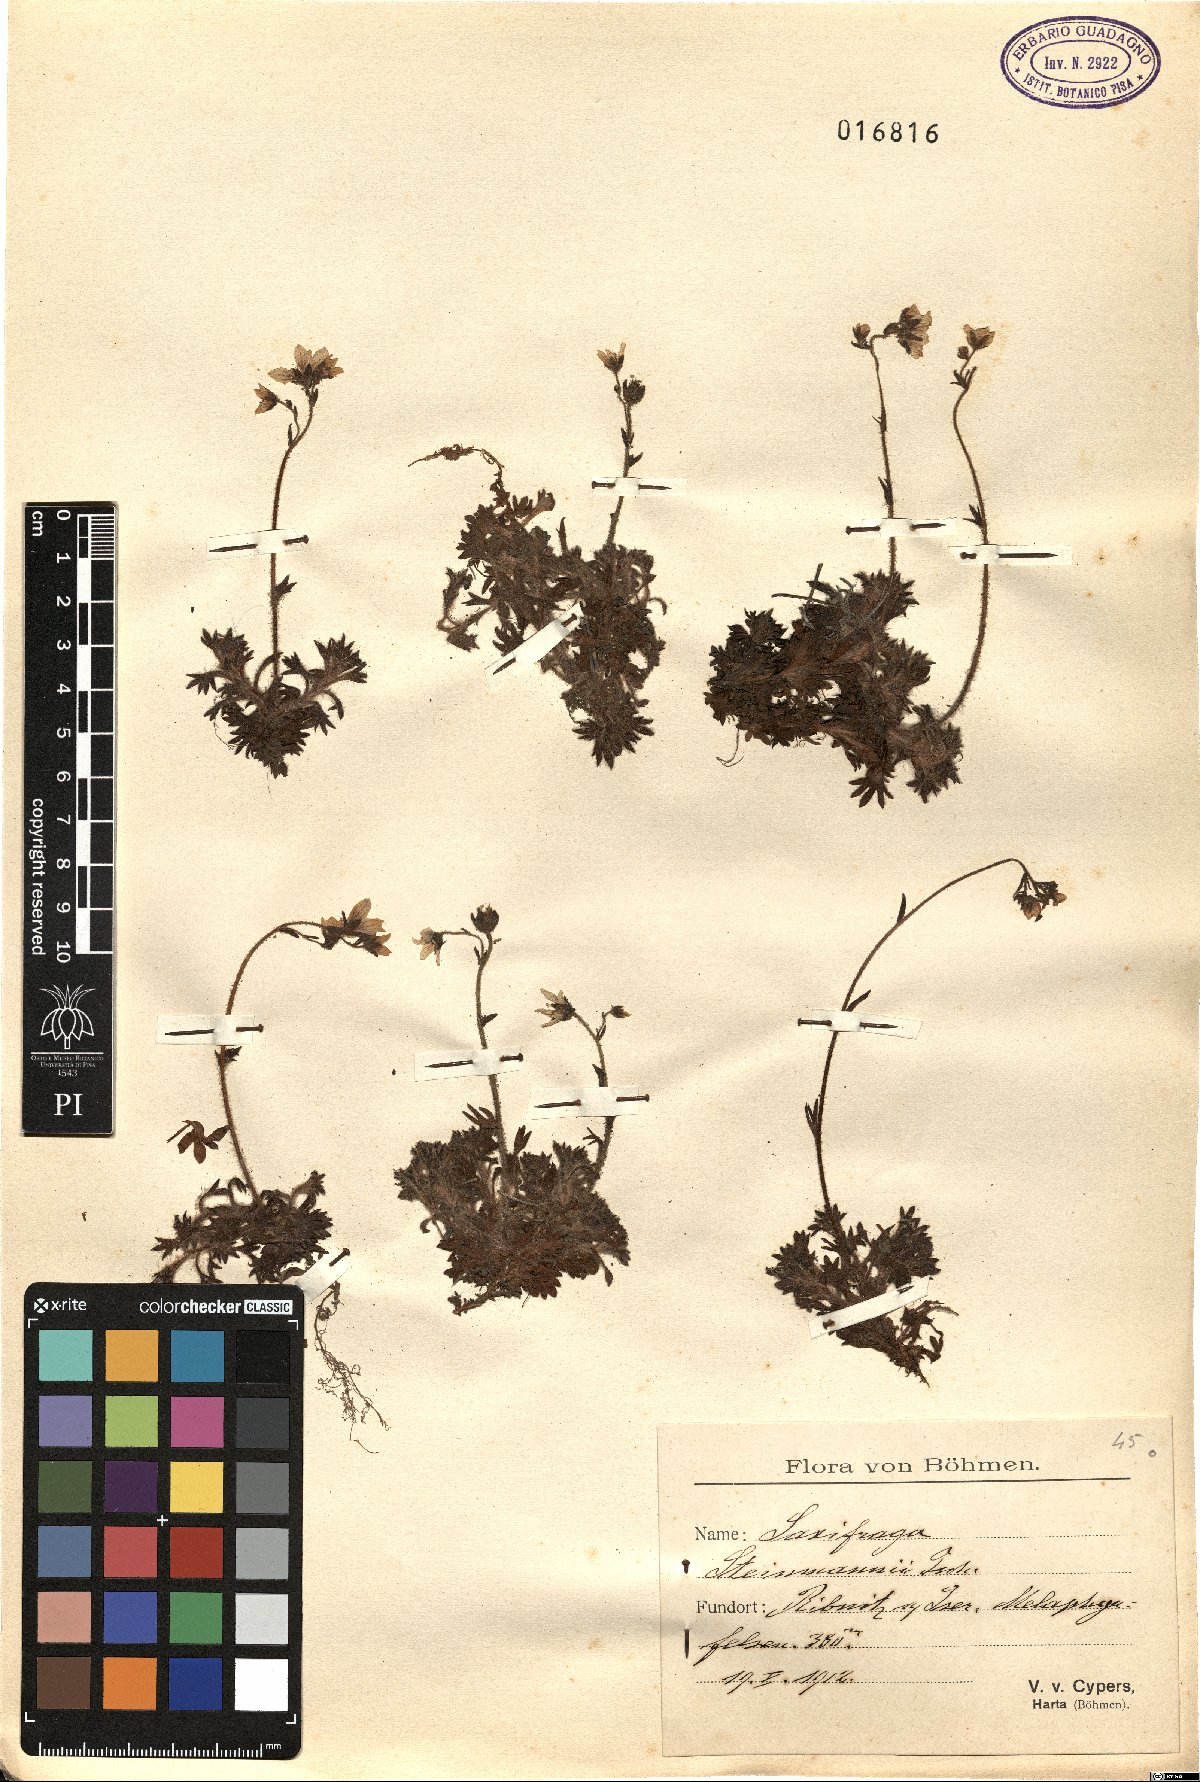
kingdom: Plantae
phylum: Tracheophyta
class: Magnoliopsida
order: Saxifragales
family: Saxifragaceae
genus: Saxifraga
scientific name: Saxifraga rosacea
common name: Irish saxifrage
